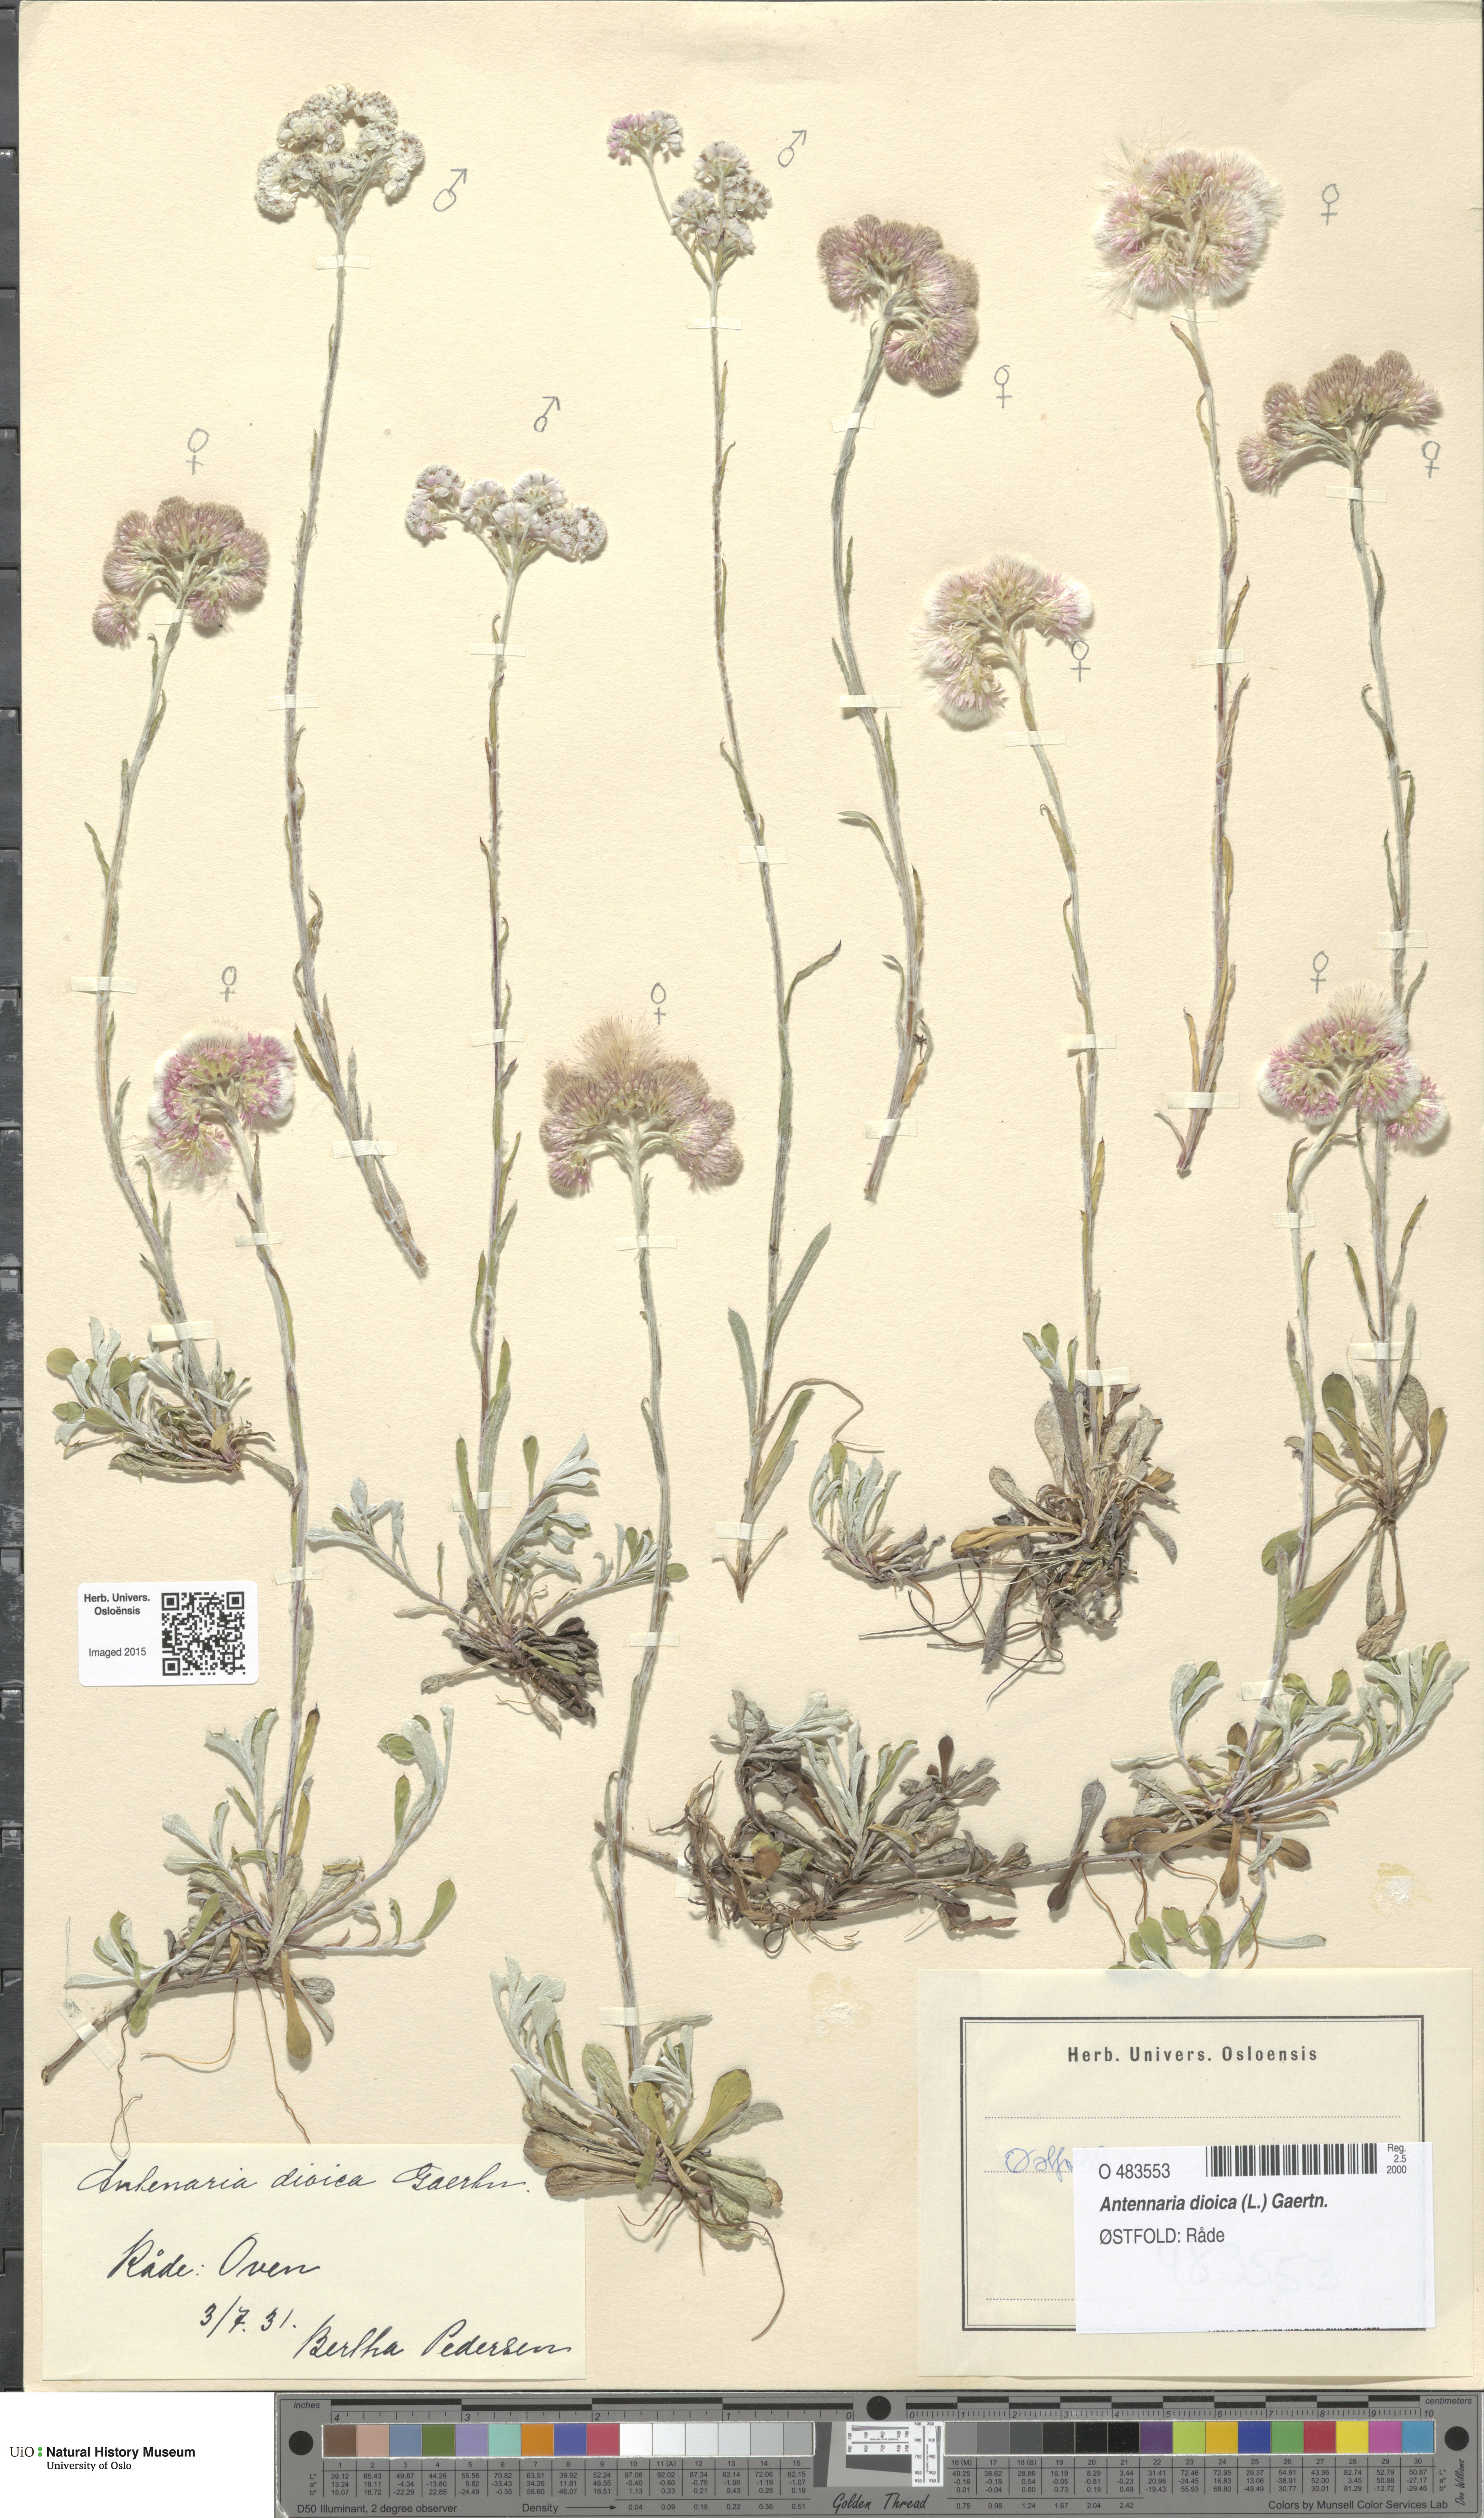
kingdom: Plantae
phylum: Tracheophyta
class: Magnoliopsida
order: Asterales
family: Asteraceae
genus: Antennaria
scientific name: Antennaria dioica
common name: Mountain everlasting
